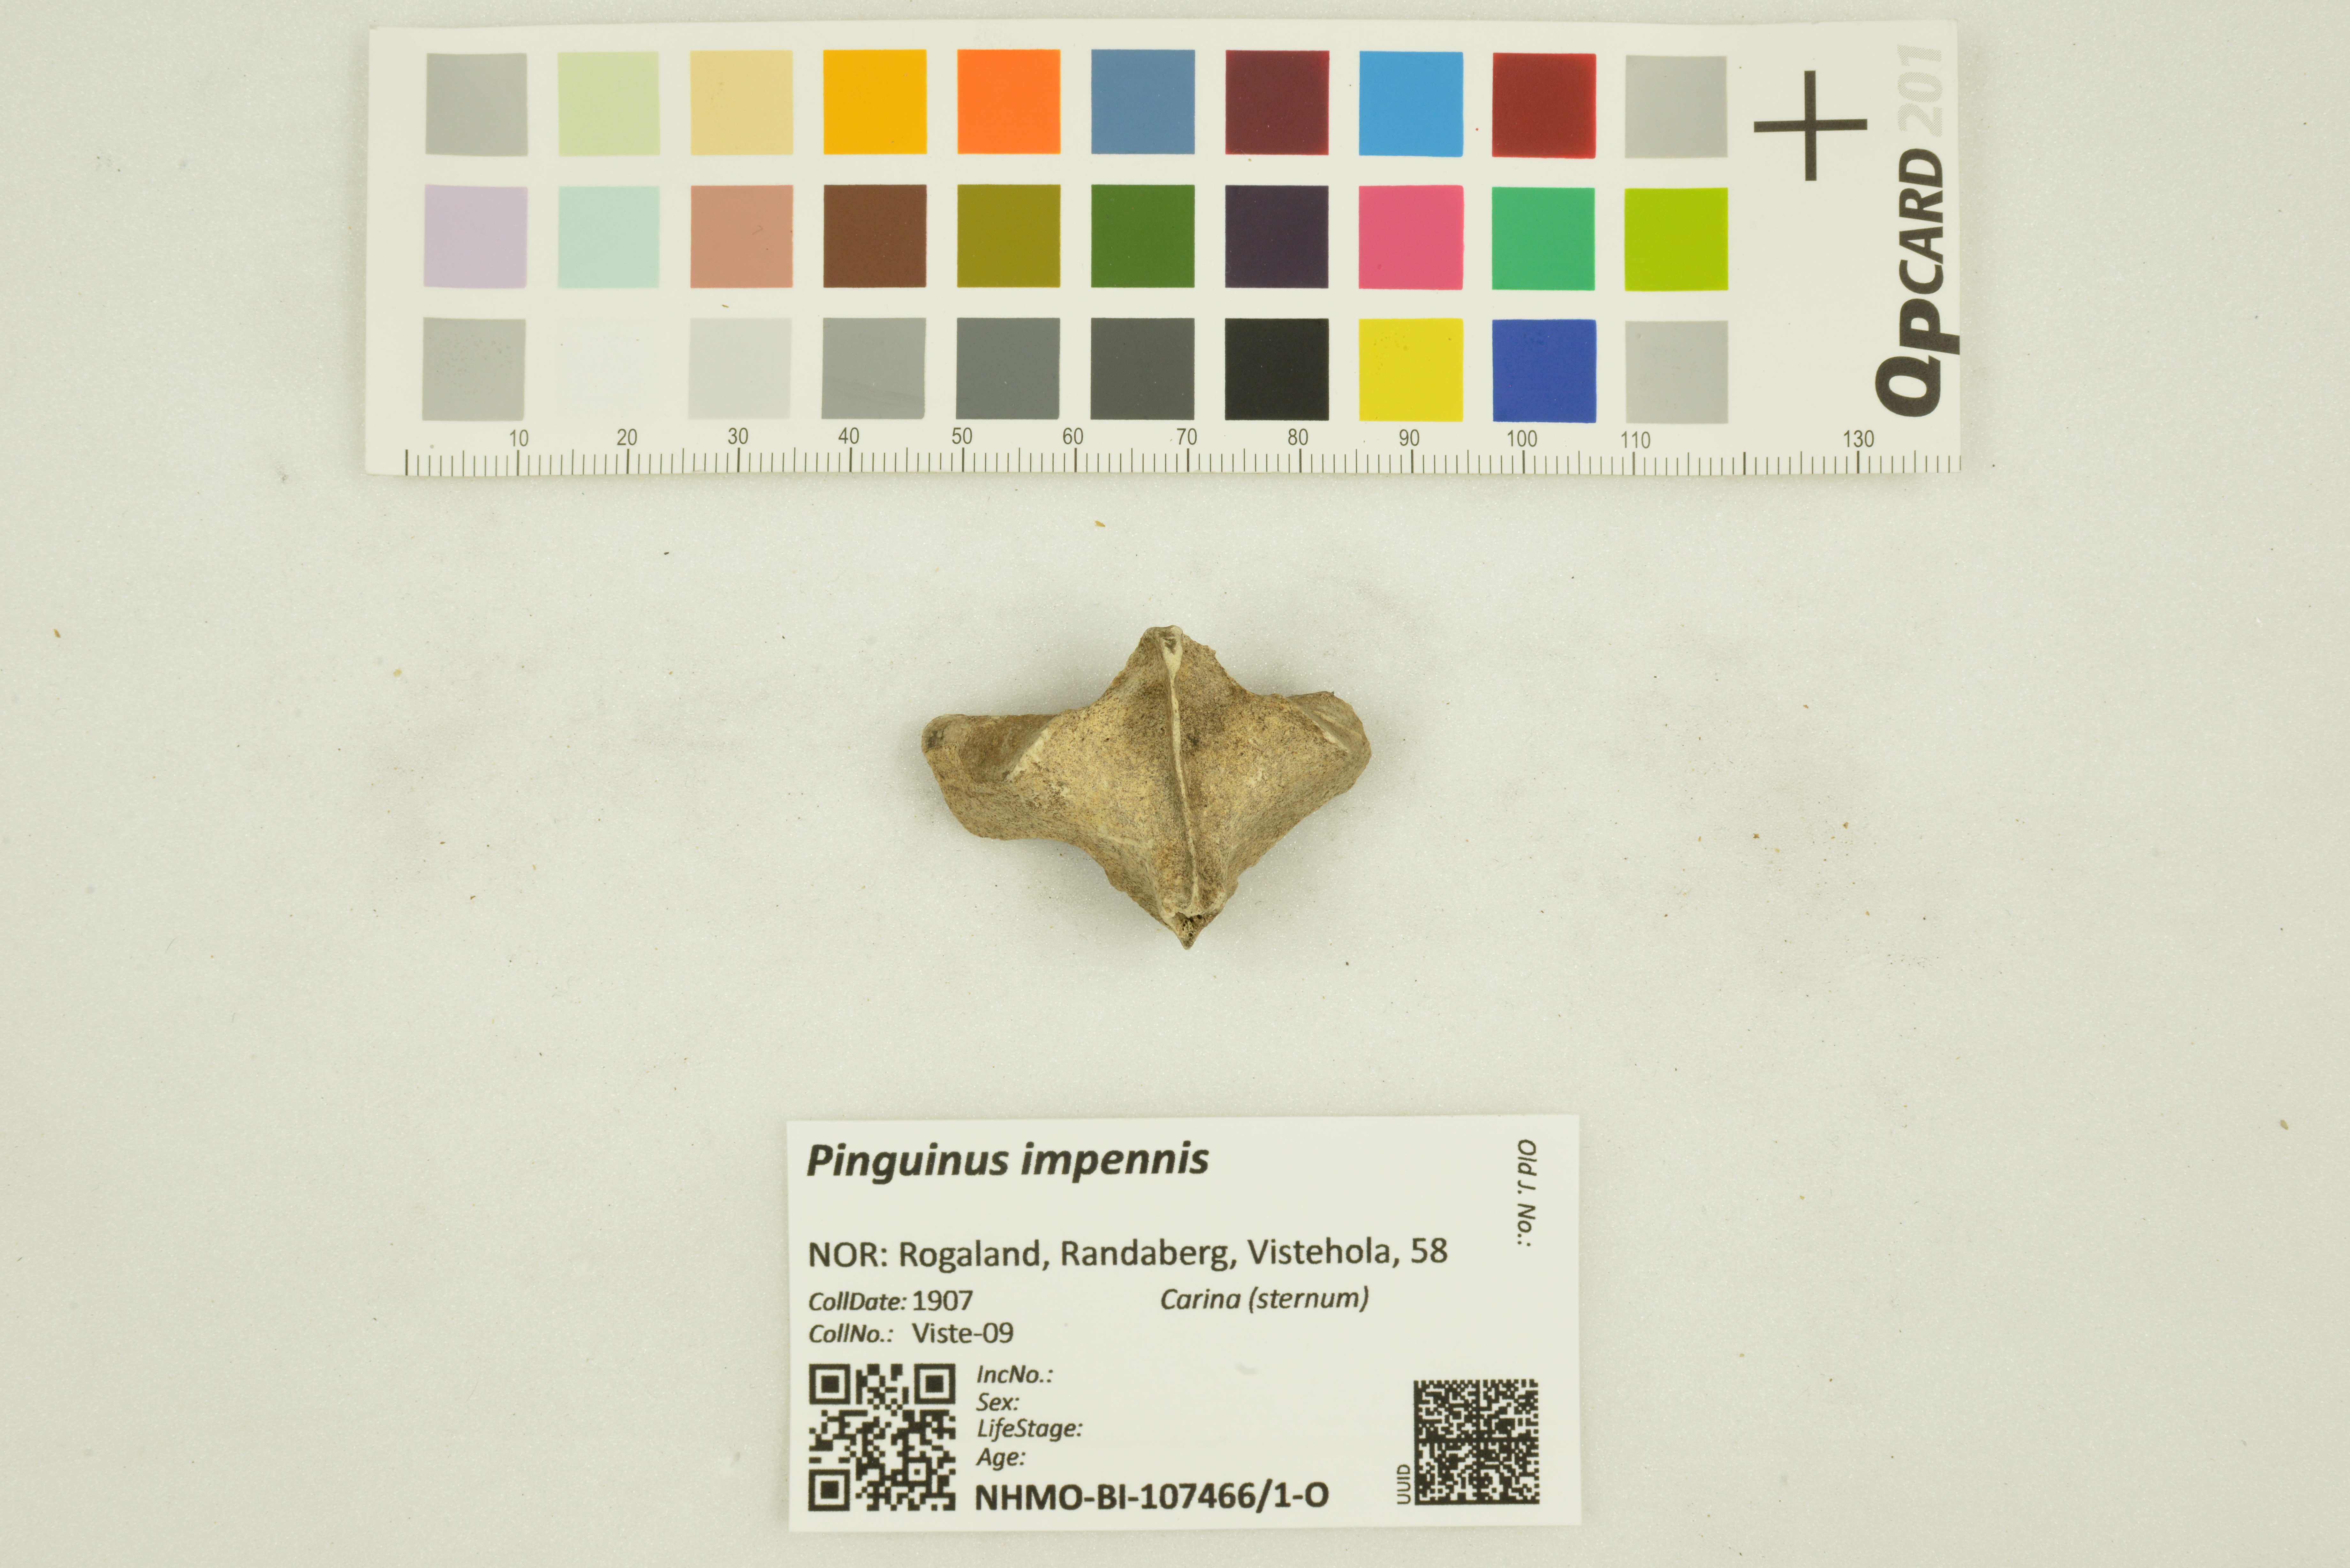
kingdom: Animalia
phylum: Chordata
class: Aves
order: Charadriiformes
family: Alcidae
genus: Pinguinus
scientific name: Pinguinus impennis
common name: Great auk
